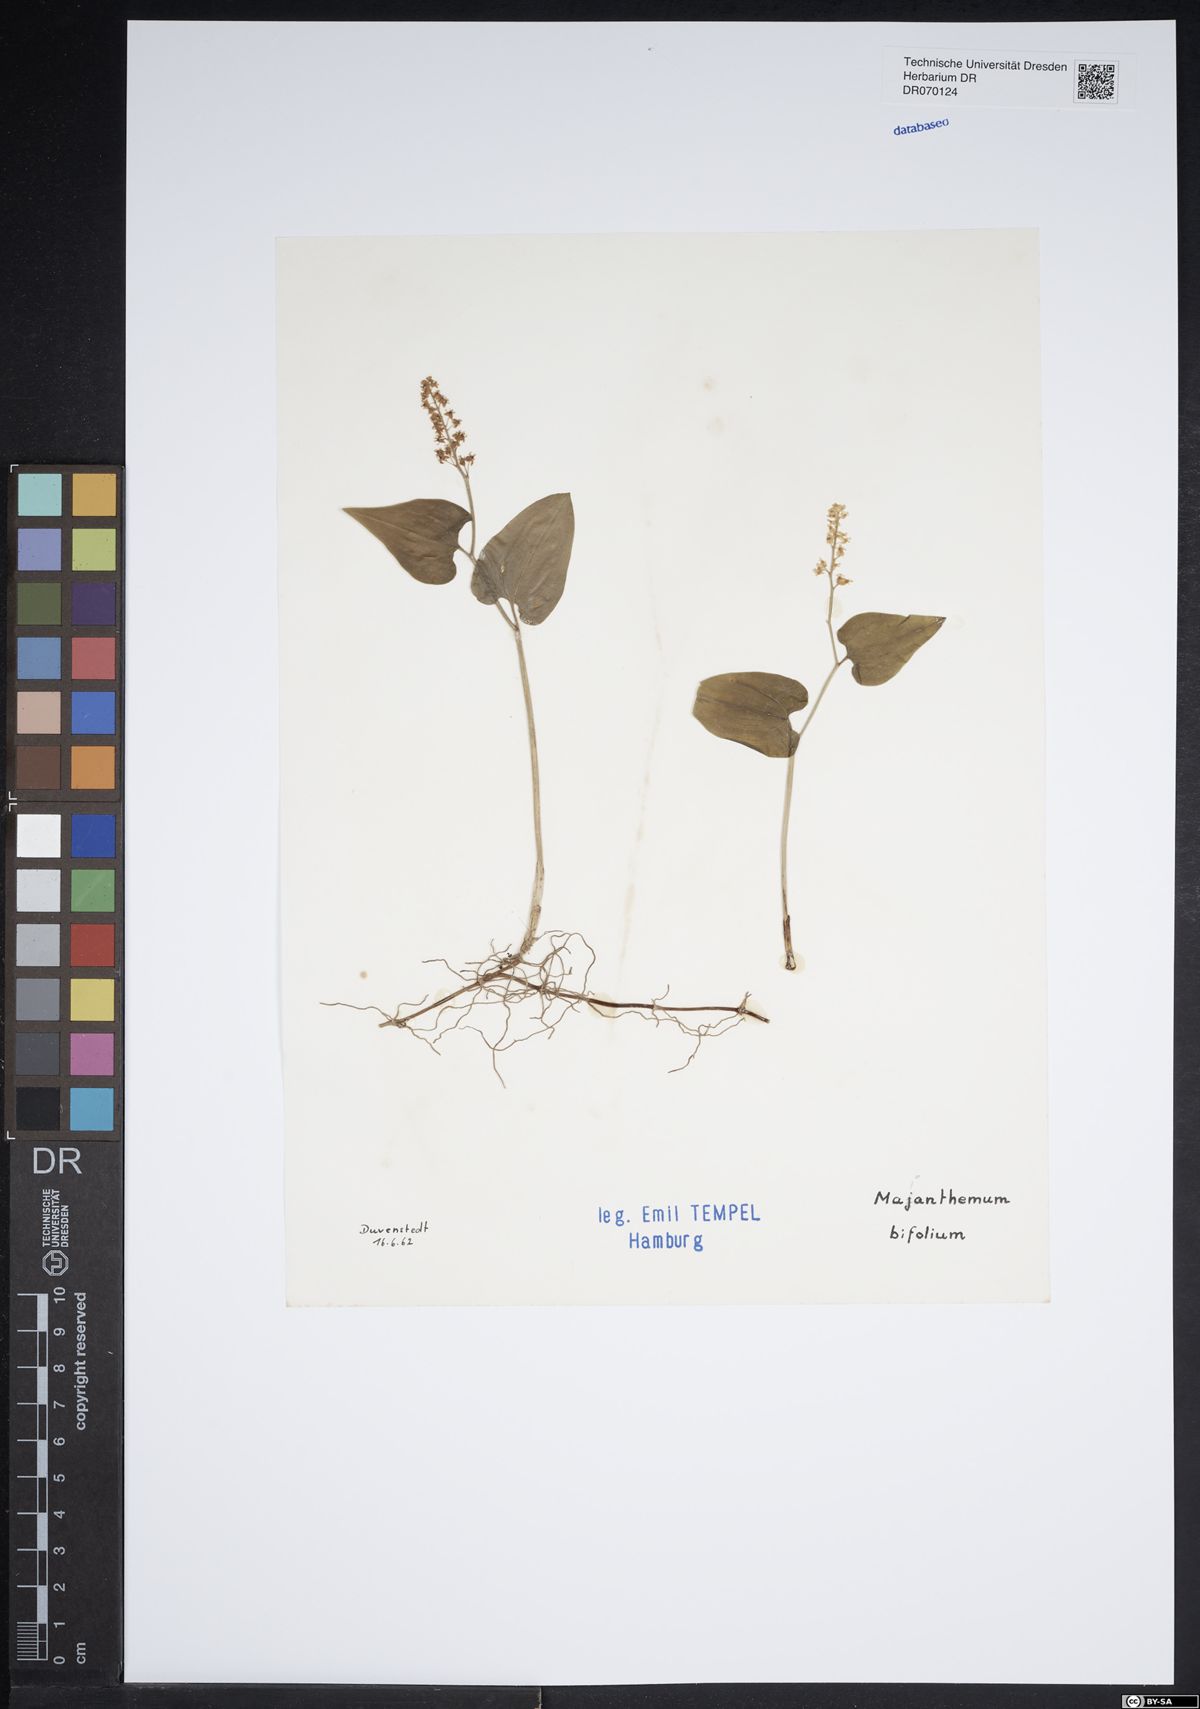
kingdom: Plantae
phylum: Tracheophyta
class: Liliopsida
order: Asparagales
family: Asparagaceae
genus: Maianthemum
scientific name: Maianthemum bifolium
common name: May lily
